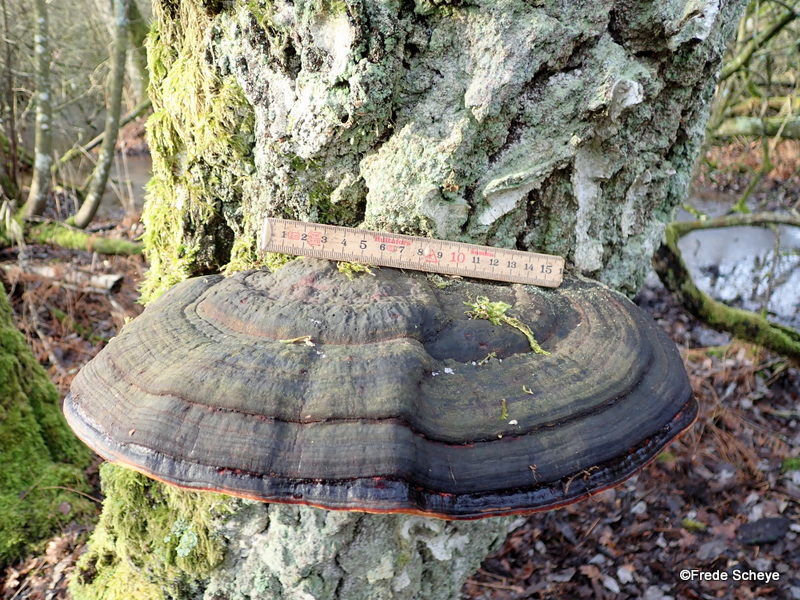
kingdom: Fungi
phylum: Basidiomycota
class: Agaricomycetes
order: Polyporales
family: Fomitopsidaceae
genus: Fomitopsis
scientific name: Fomitopsis pinicola
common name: randbæltet hovporesvamp
